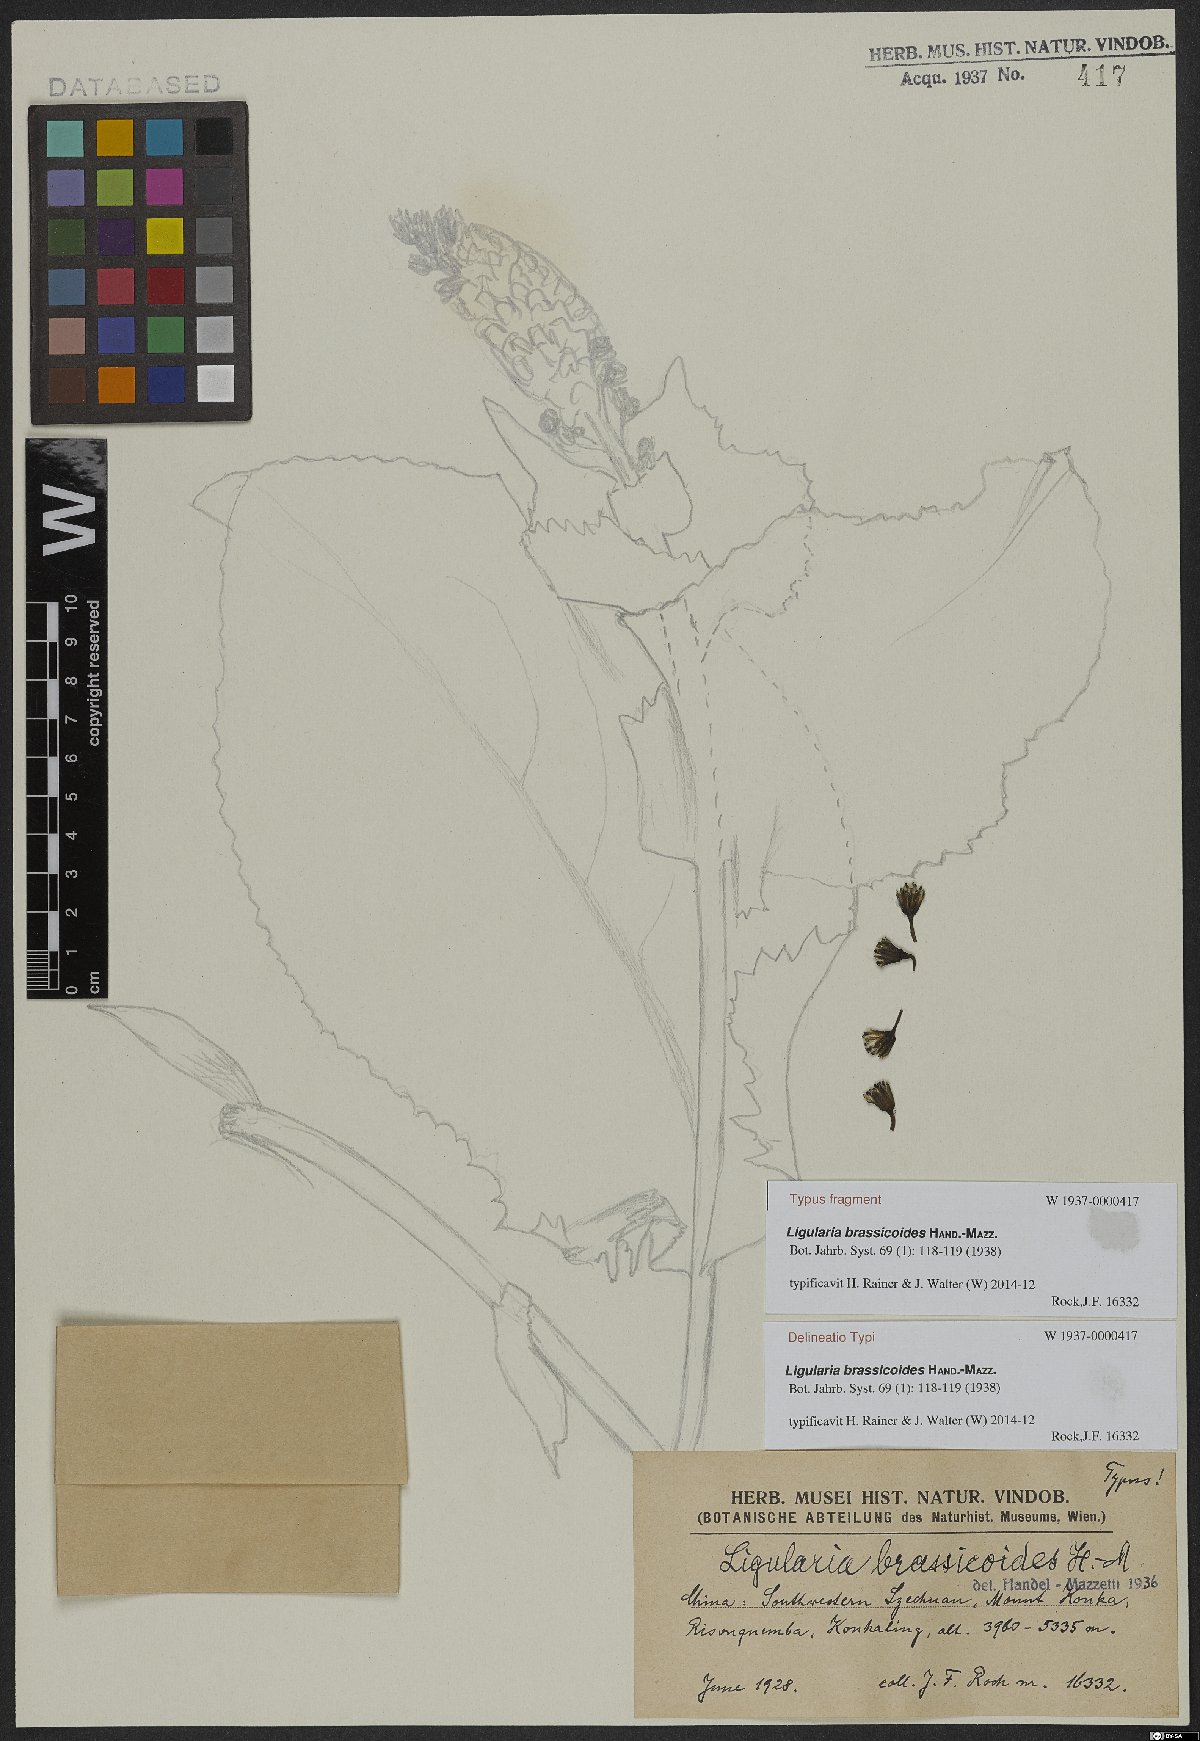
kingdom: Plantae
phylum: Tracheophyta
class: Magnoliopsida
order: Asterales
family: Asteraceae
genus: Ligularia
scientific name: Ligularia brassicoides
